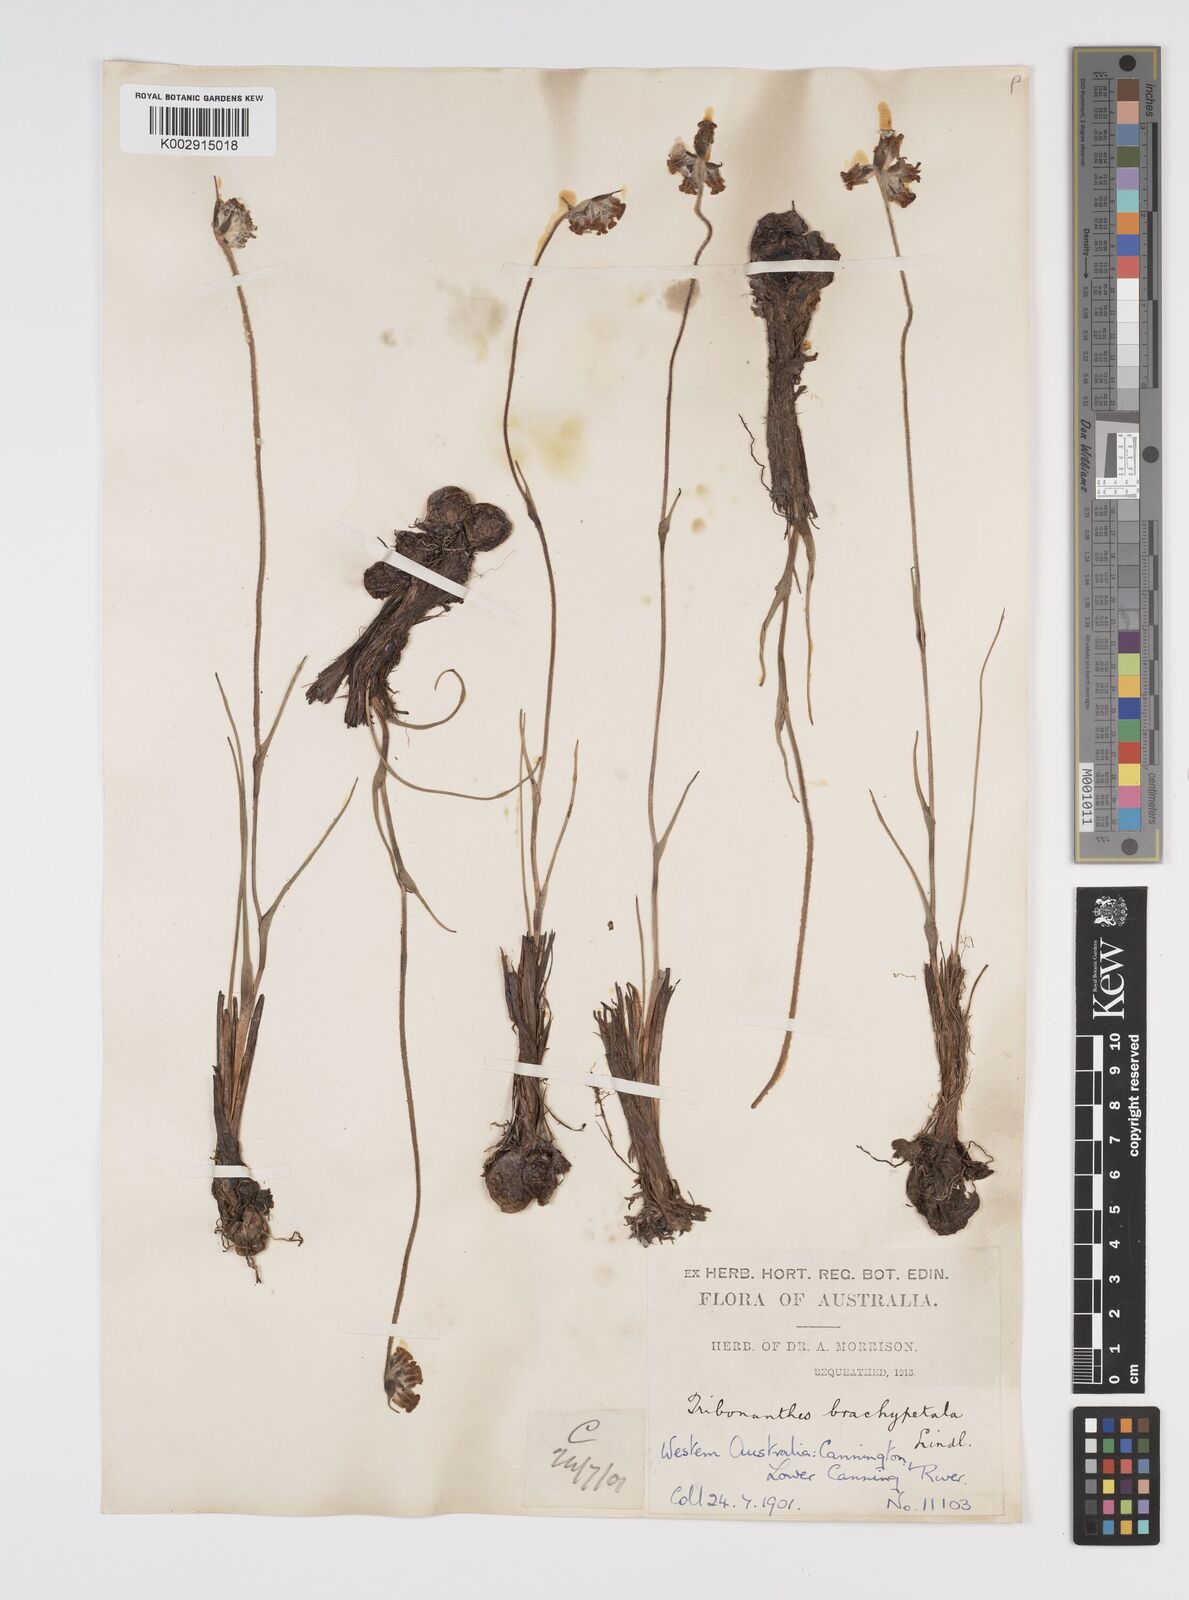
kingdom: Plantae
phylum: Tracheophyta
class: Liliopsida
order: Commelinales
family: Haemodoraceae
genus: Tribonanthes
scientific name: Tribonanthes brachypetala
